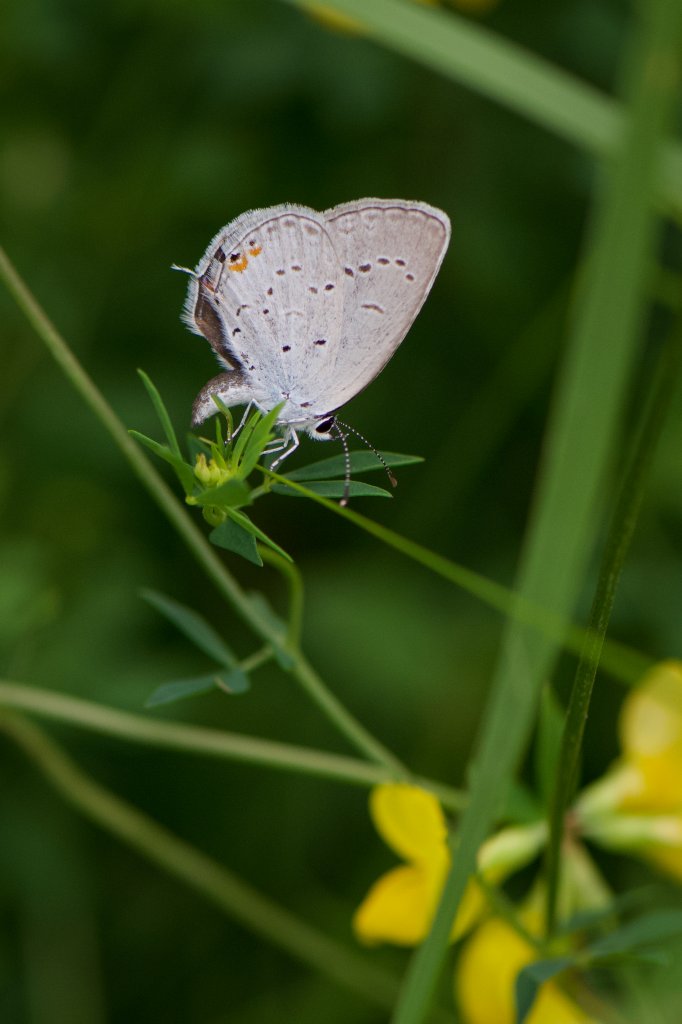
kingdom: Animalia
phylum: Arthropoda
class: Insecta
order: Lepidoptera
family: Lycaenidae
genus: Elkalyce
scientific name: Elkalyce comyntas
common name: Eastern Tailed-Blue
